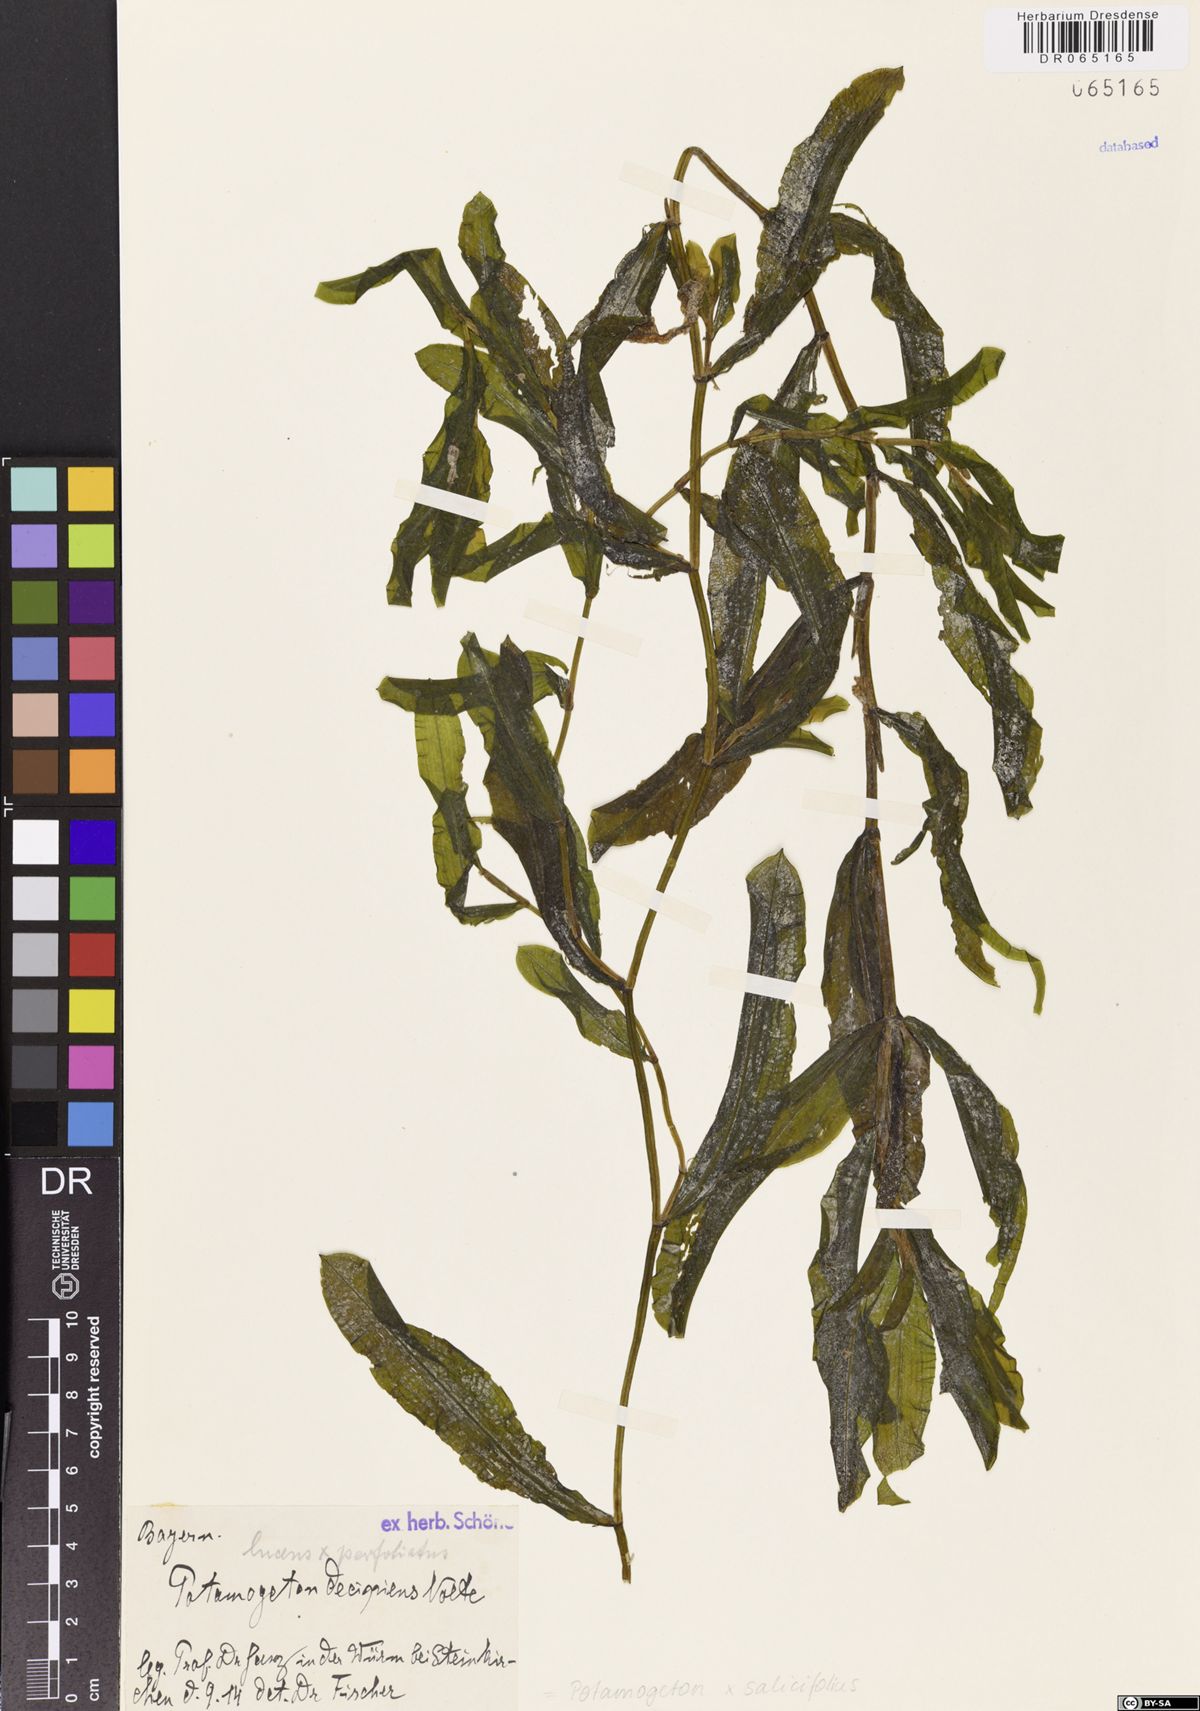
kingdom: Plantae
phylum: Tracheophyta
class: Liliopsida
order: Alismatales
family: Potamogetonaceae
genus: Potamogeton
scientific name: Potamogeton salicifolius
